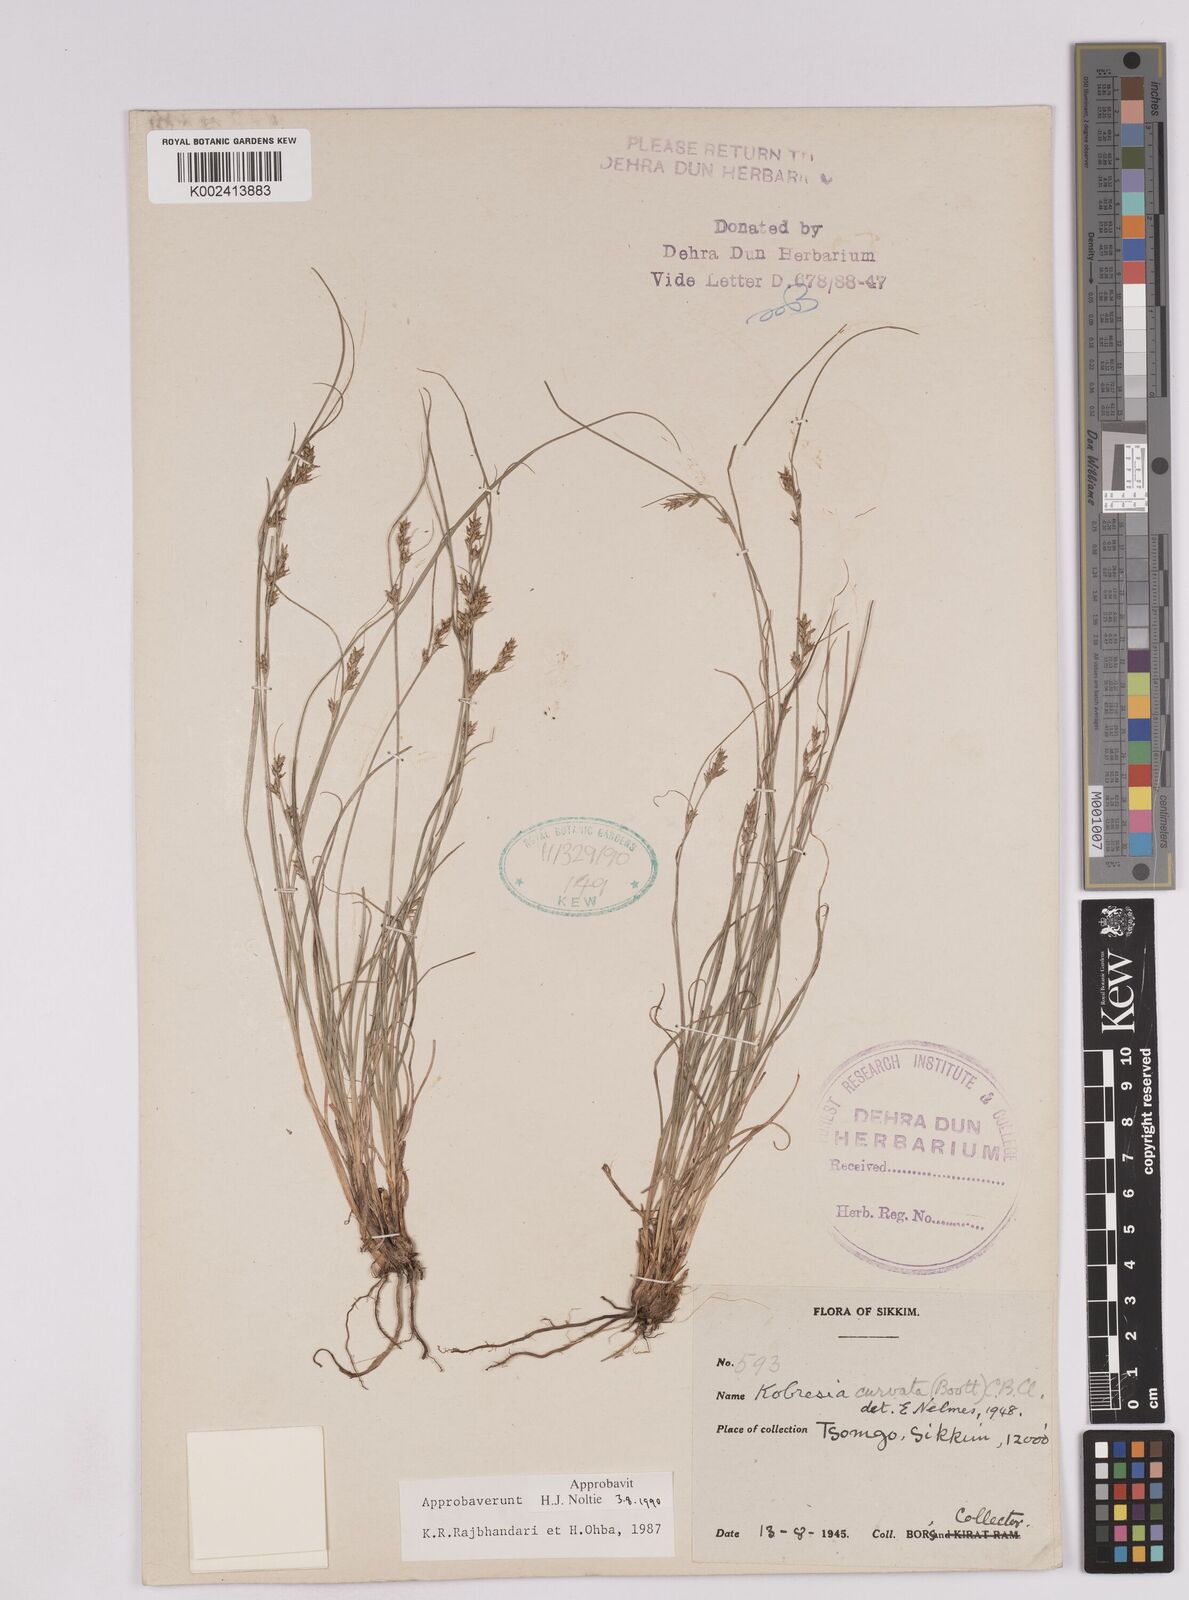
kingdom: Plantae
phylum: Tracheophyta
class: Liliopsida
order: Poales
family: Cyperaceae
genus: Carex
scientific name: Carex bonatiana
